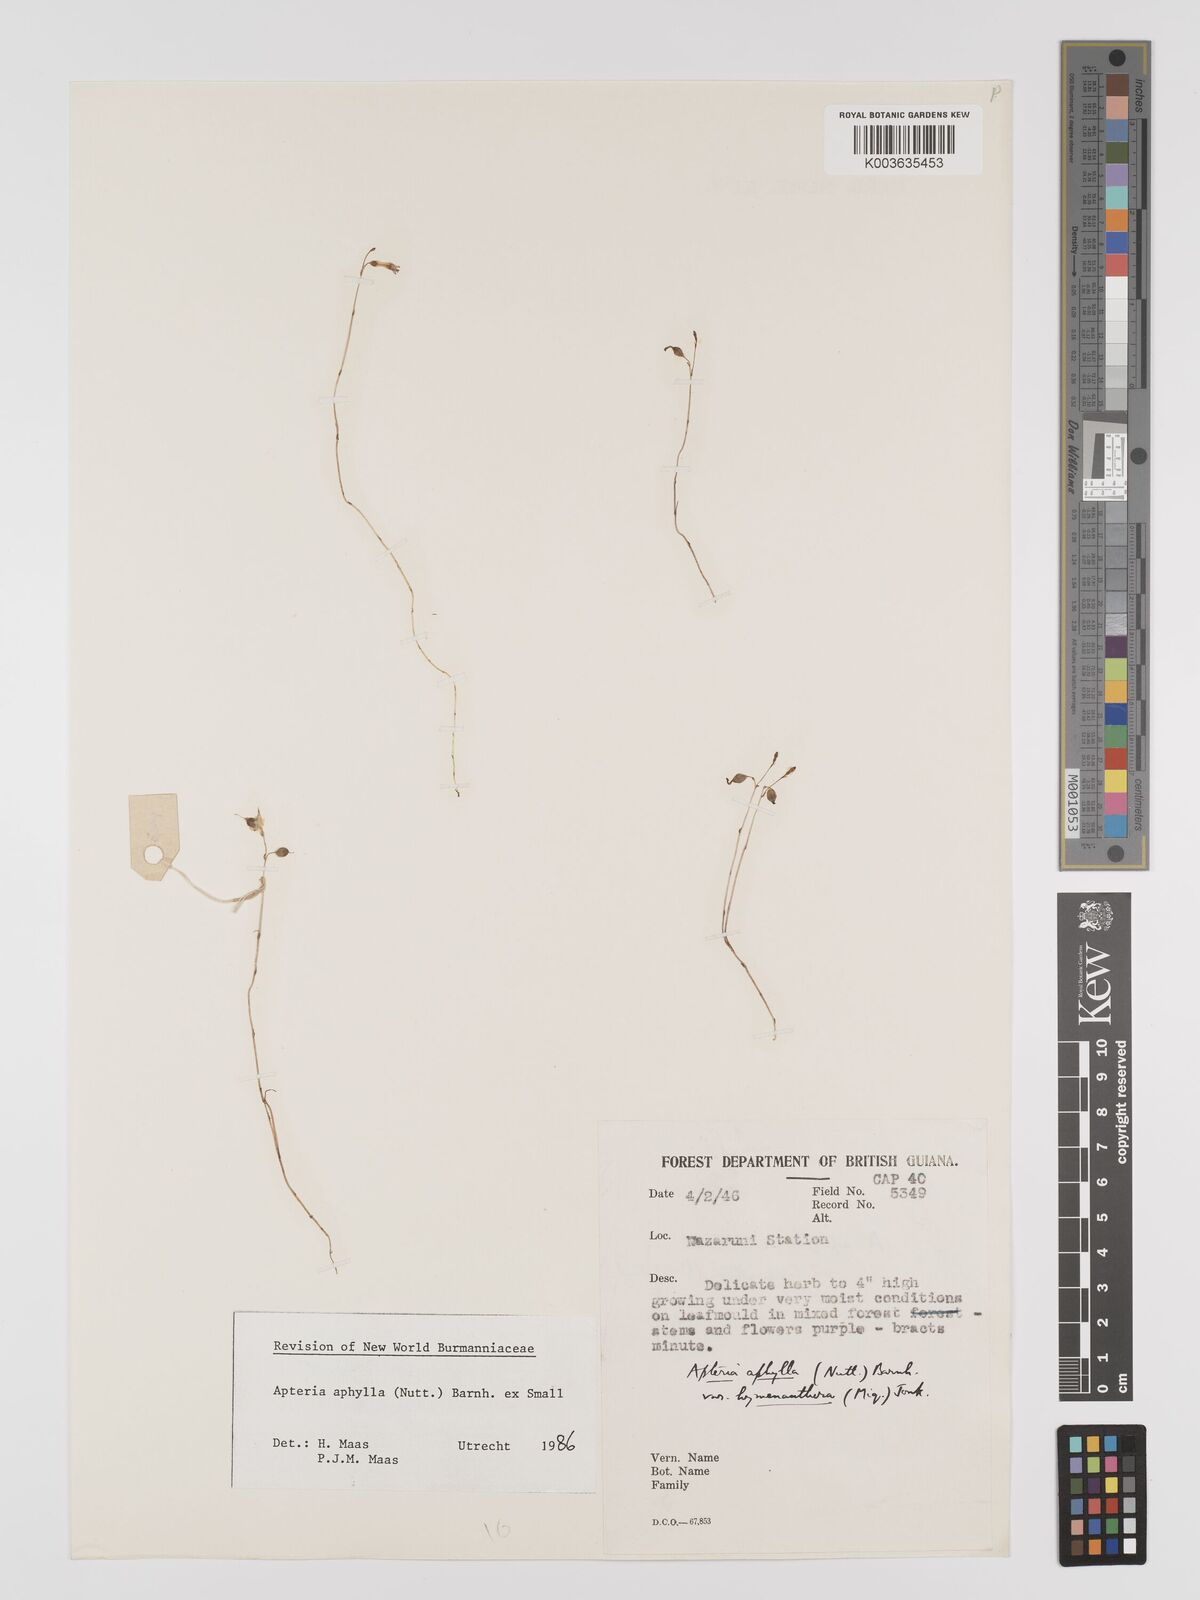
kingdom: Plantae
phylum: Tracheophyta
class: Liliopsida
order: Dioscoreales
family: Burmanniaceae
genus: Apteria
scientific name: Apteria aphylla
